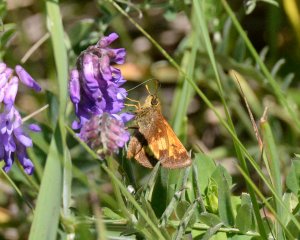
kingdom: Animalia
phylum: Arthropoda
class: Insecta
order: Lepidoptera
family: Hesperiidae
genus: Lon
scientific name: Lon hobomok
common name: Hobomok Skipper
